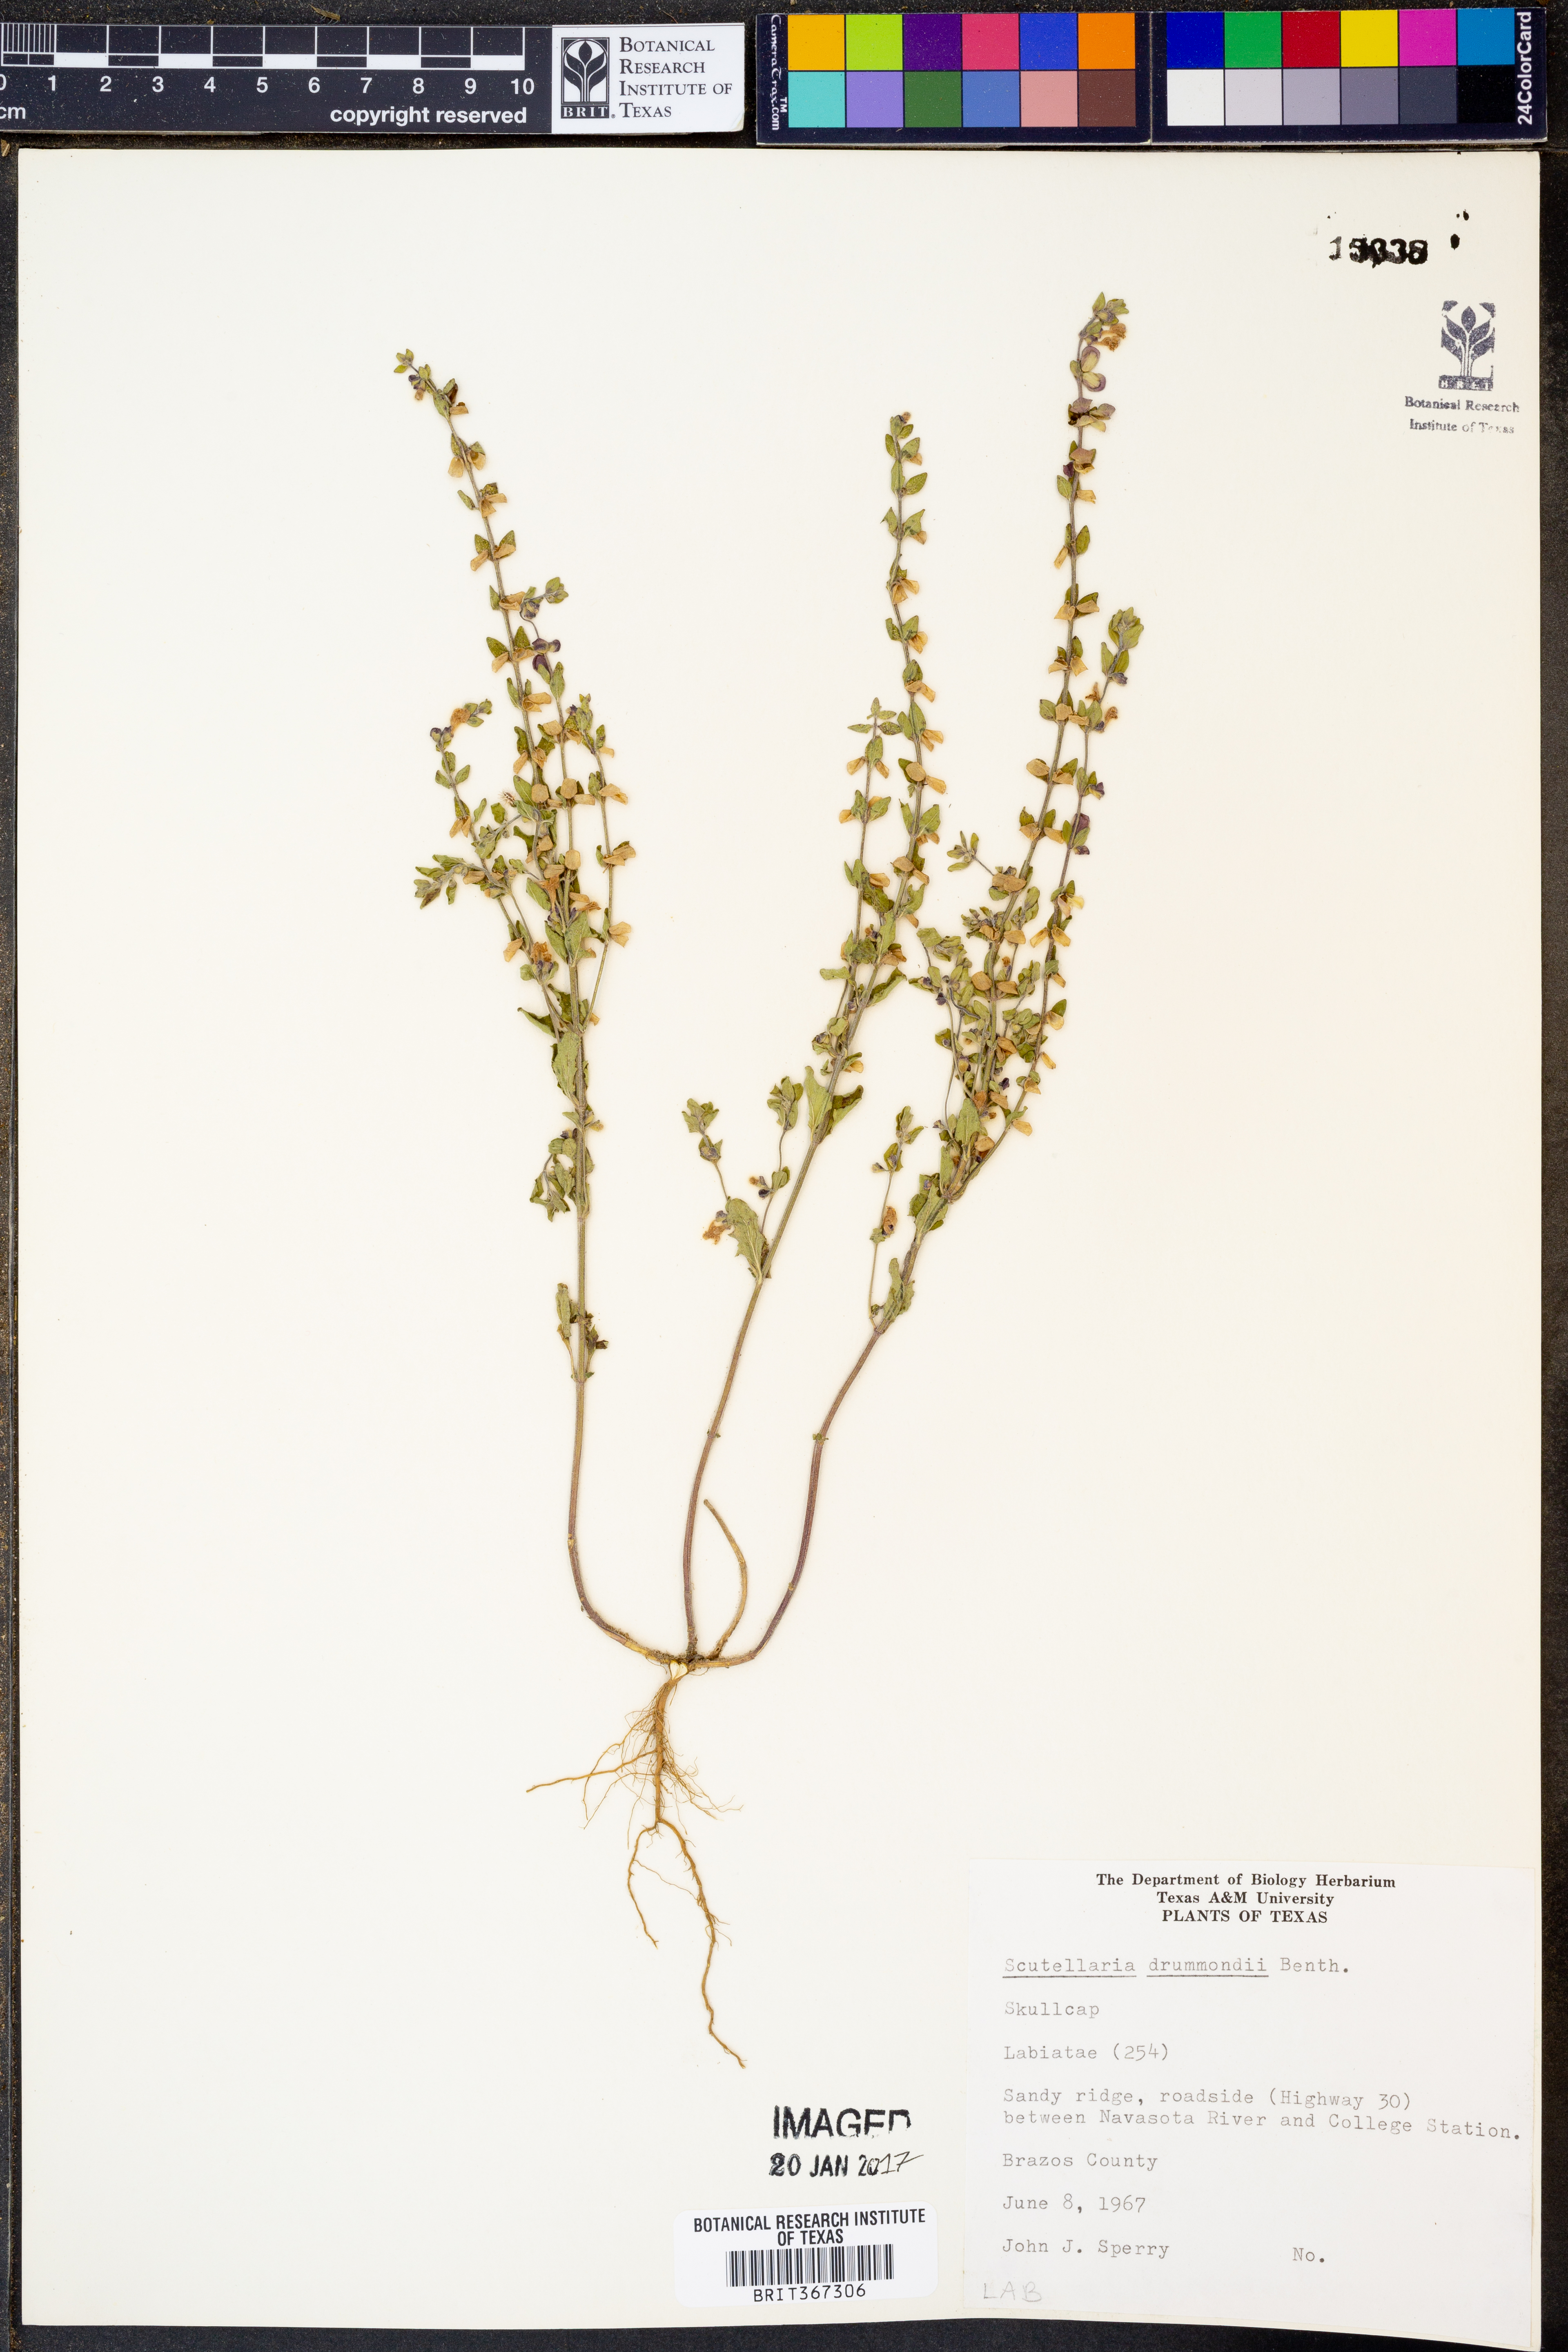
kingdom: Plantae
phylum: Tracheophyta
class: Magnoliopsida
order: Lamiales
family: Lamiaceae
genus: Scutellaria
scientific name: Scutellaria drummondii
